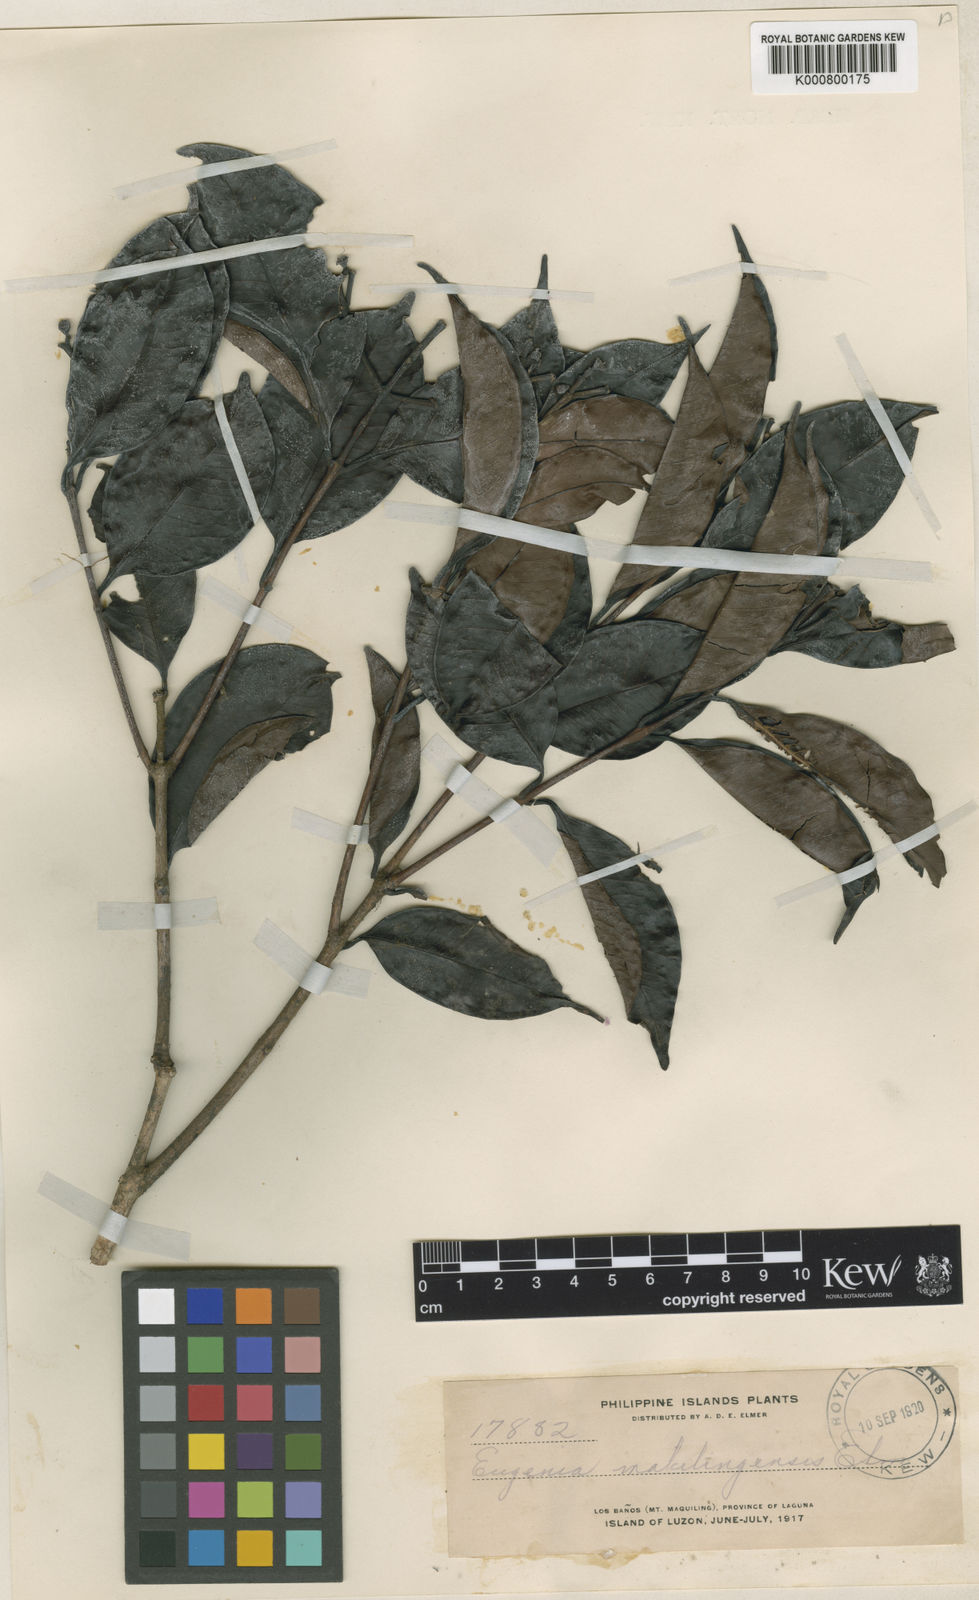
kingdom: Plantae
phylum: Tracheophyta
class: Magnoliopsida
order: Myrtales
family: Myrtaceae
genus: Syzygium
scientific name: Syzygium alvarezii
